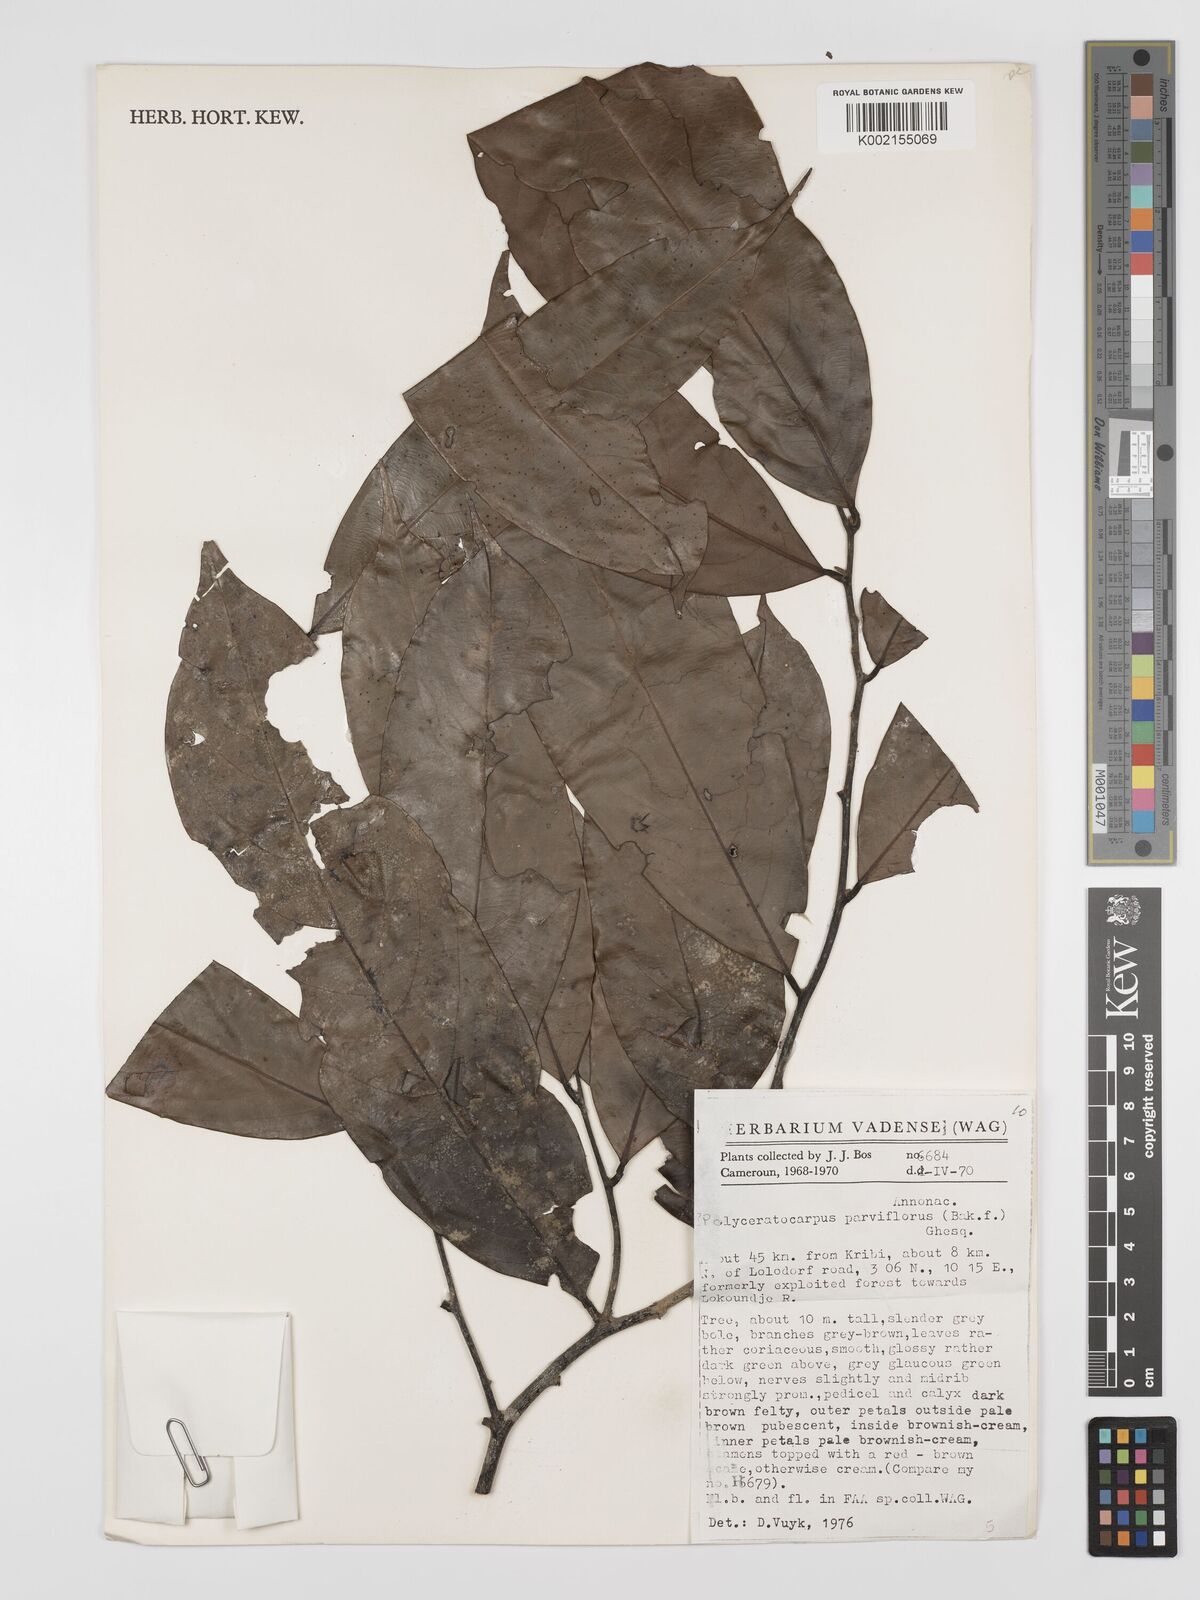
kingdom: Plantae
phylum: Tracheophyta
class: Magnoliopsida
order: Magnoliales
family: Annonaceae
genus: Polyceratocarpus
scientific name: Polyceratocarpus parviflorus
